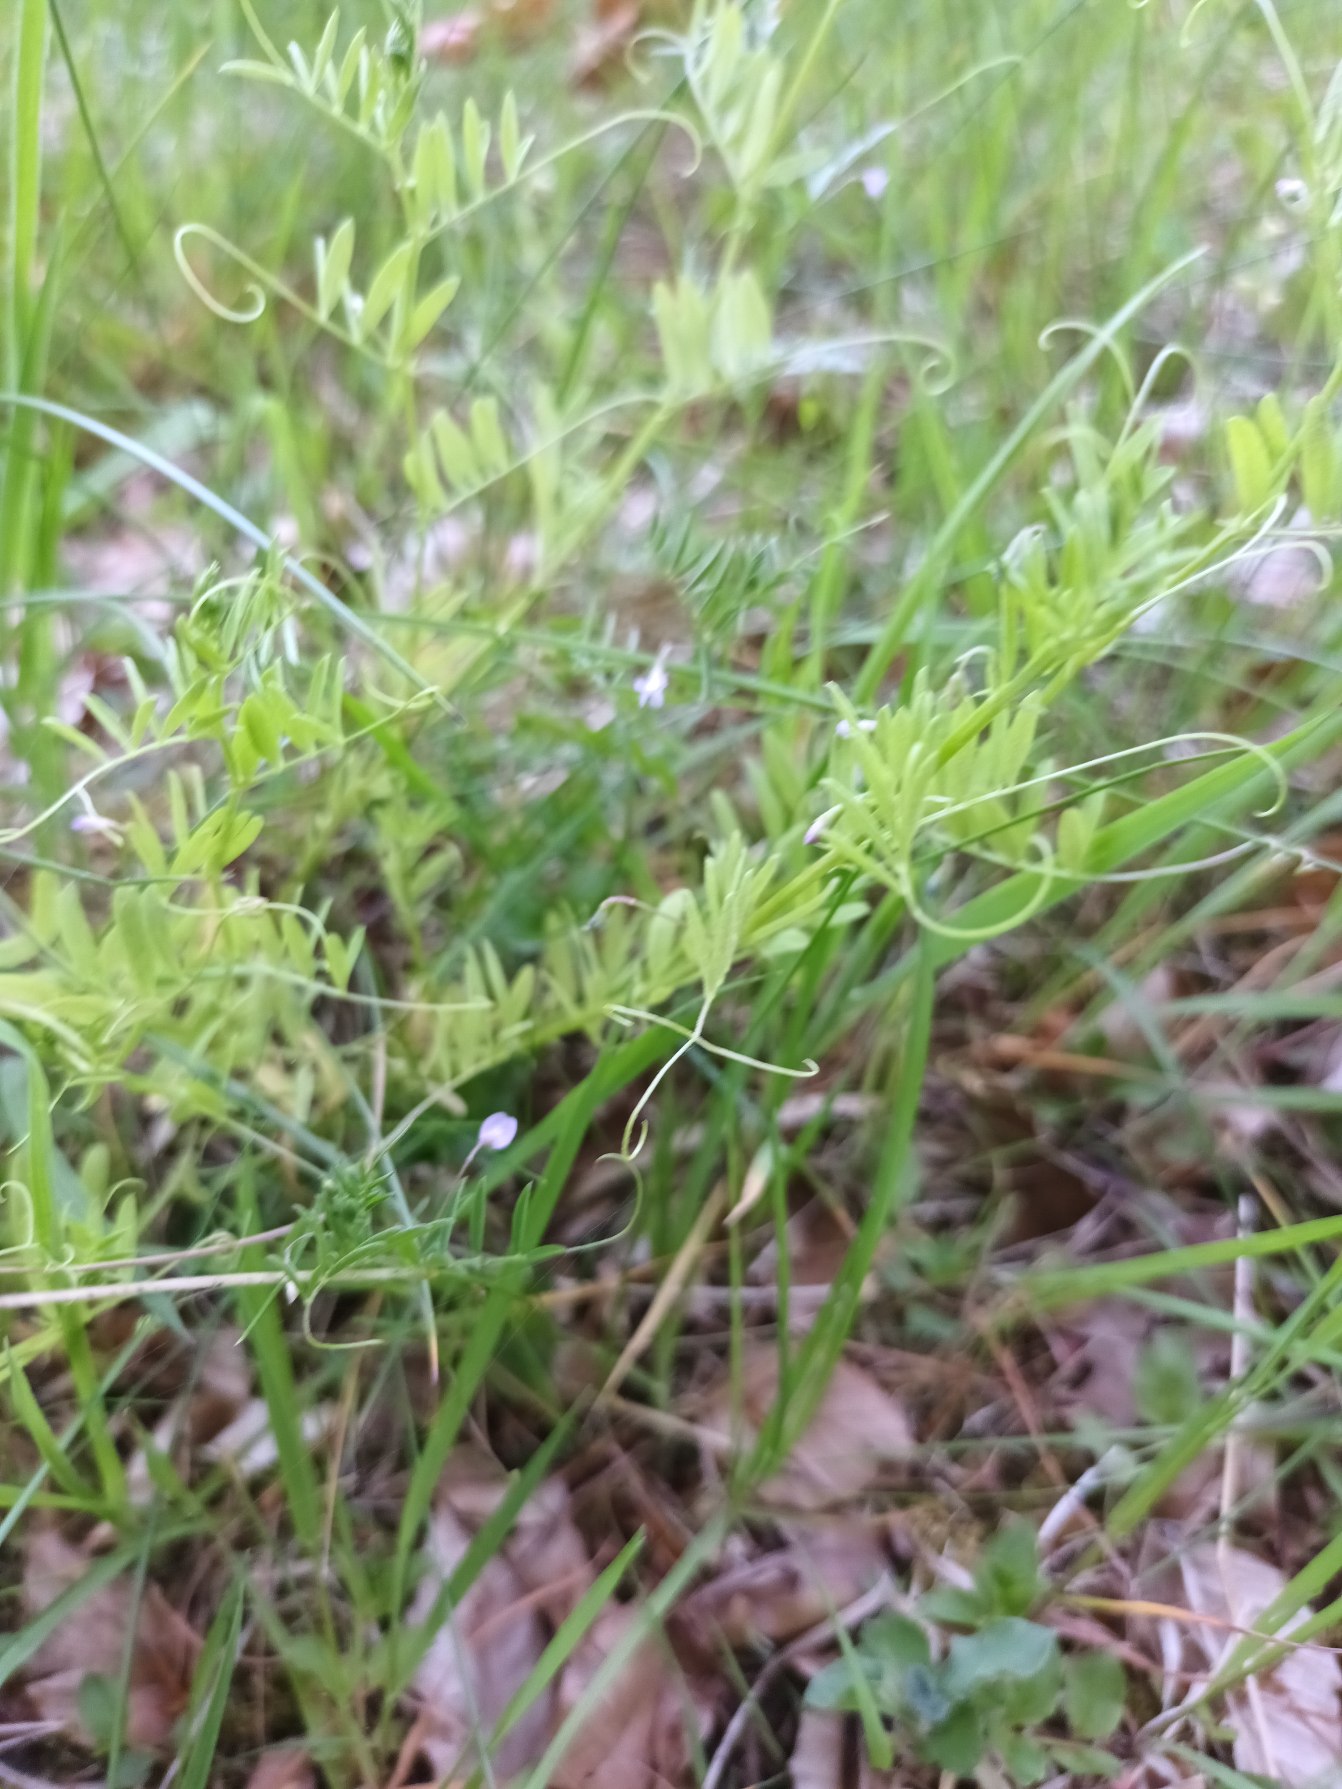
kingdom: Plantae
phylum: Tracheophyta
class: Magnoliopsida
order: Fabales
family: Fabaceae
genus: Vicia
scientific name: Vicia tetrasperma
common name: Tadder-vikke
